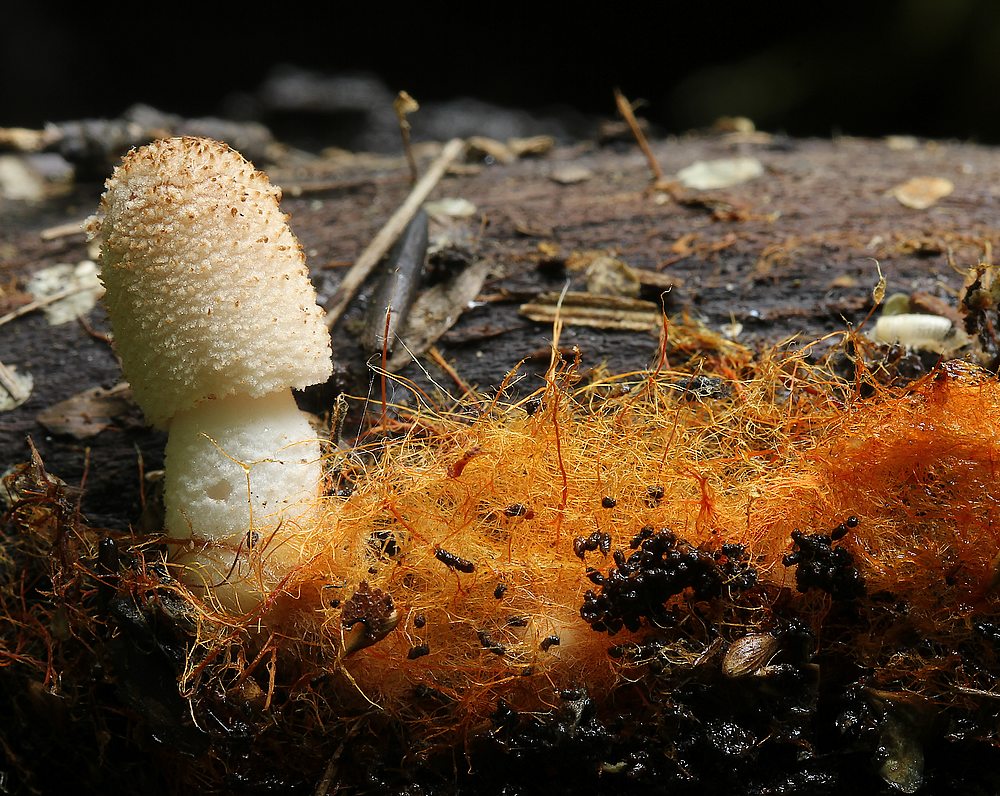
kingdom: Fungi
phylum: Basidiomycota
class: Agaricomycetes
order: Agaricales
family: Psathyrellaceae
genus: Coprinellus
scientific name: Coprinellus
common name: blækhat
